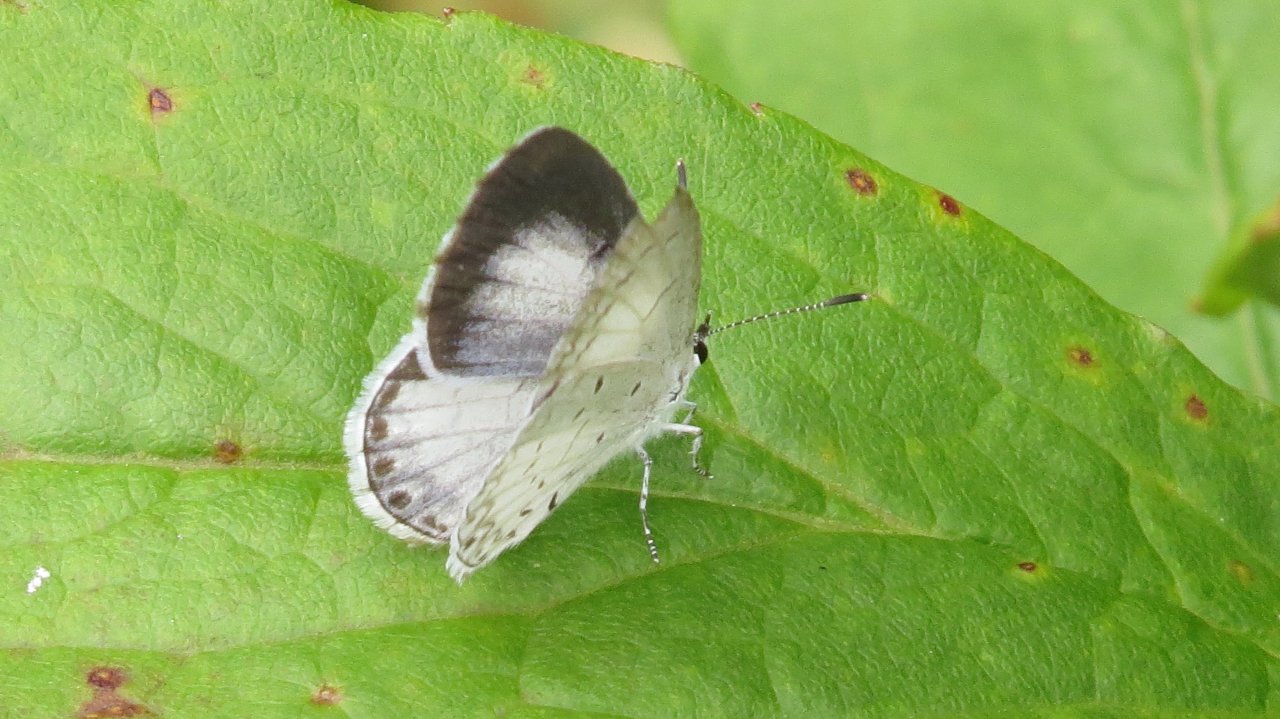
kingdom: Animalia
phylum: Arthropoda
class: Insecta
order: Lepidoptera
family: Lycaenidae
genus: Cyaniris
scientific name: Cyaniris neglecta
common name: Summer Azure
